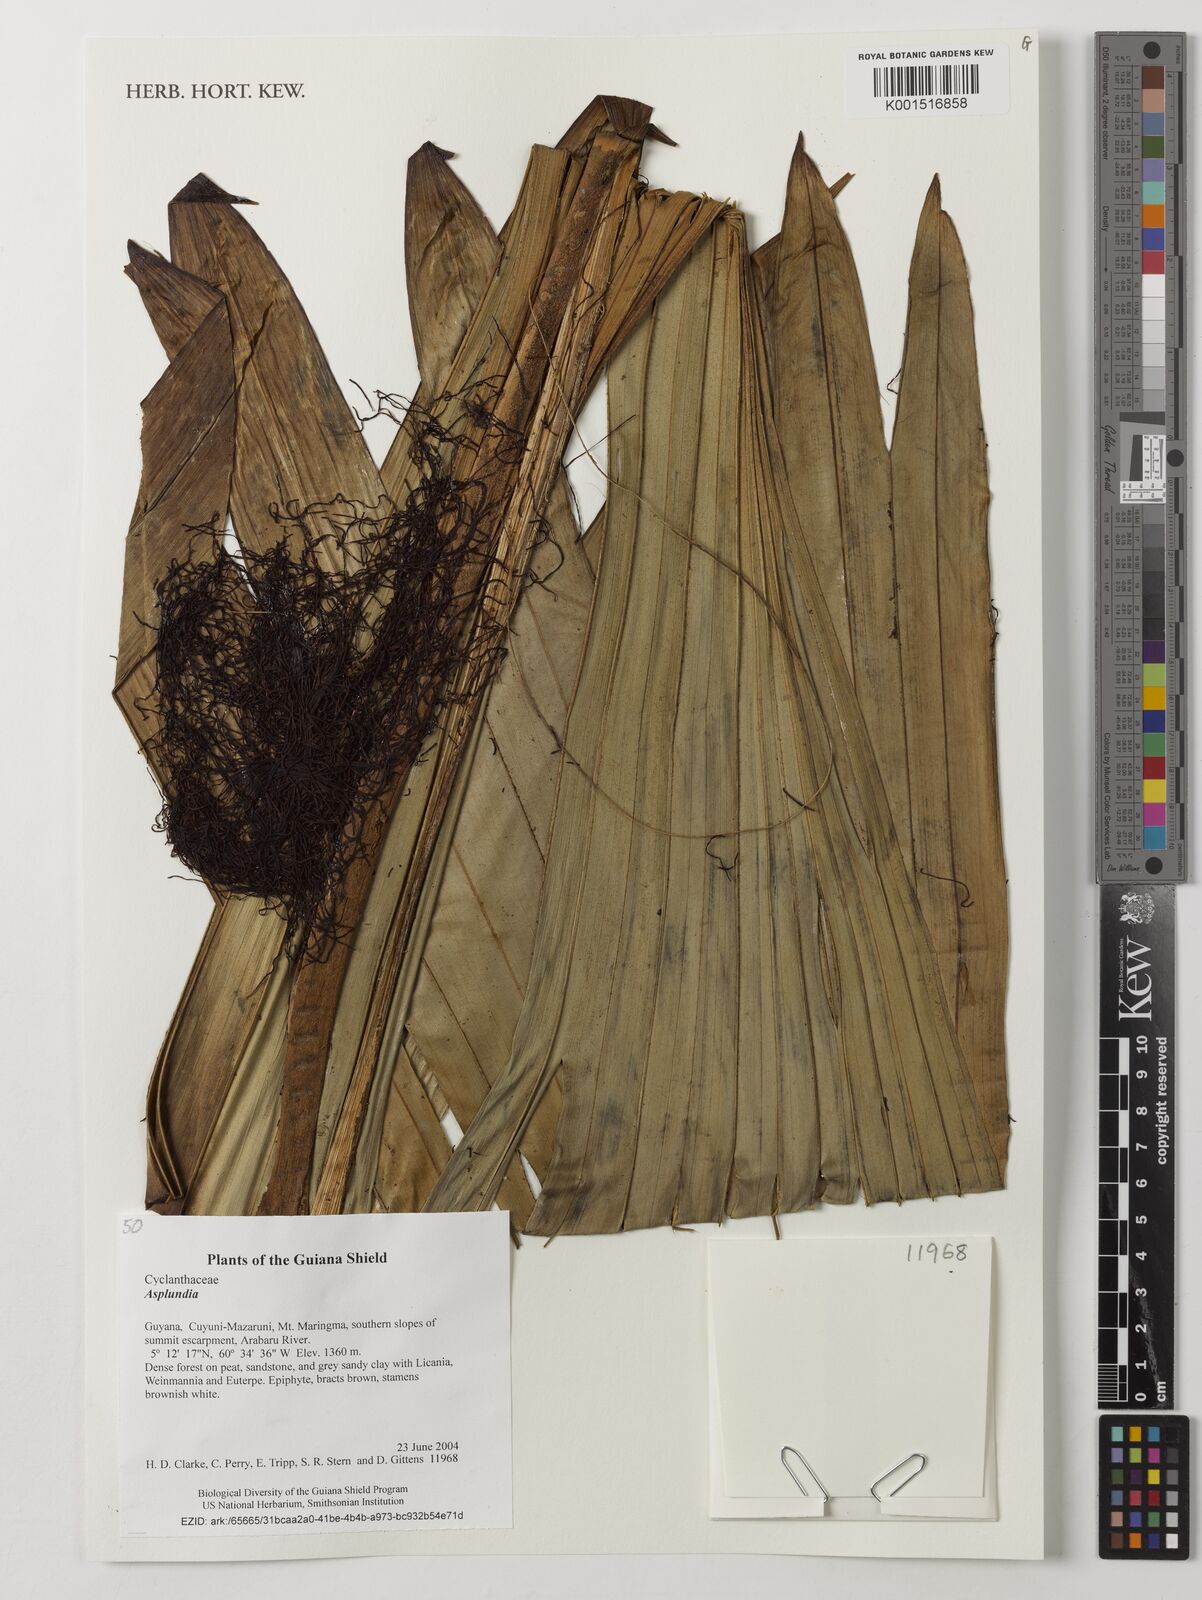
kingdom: Plantae
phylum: Tracheophyta
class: Liliopsida
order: Pandanales
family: Cyclanthaceae
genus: Asplundia
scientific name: Asplundia
